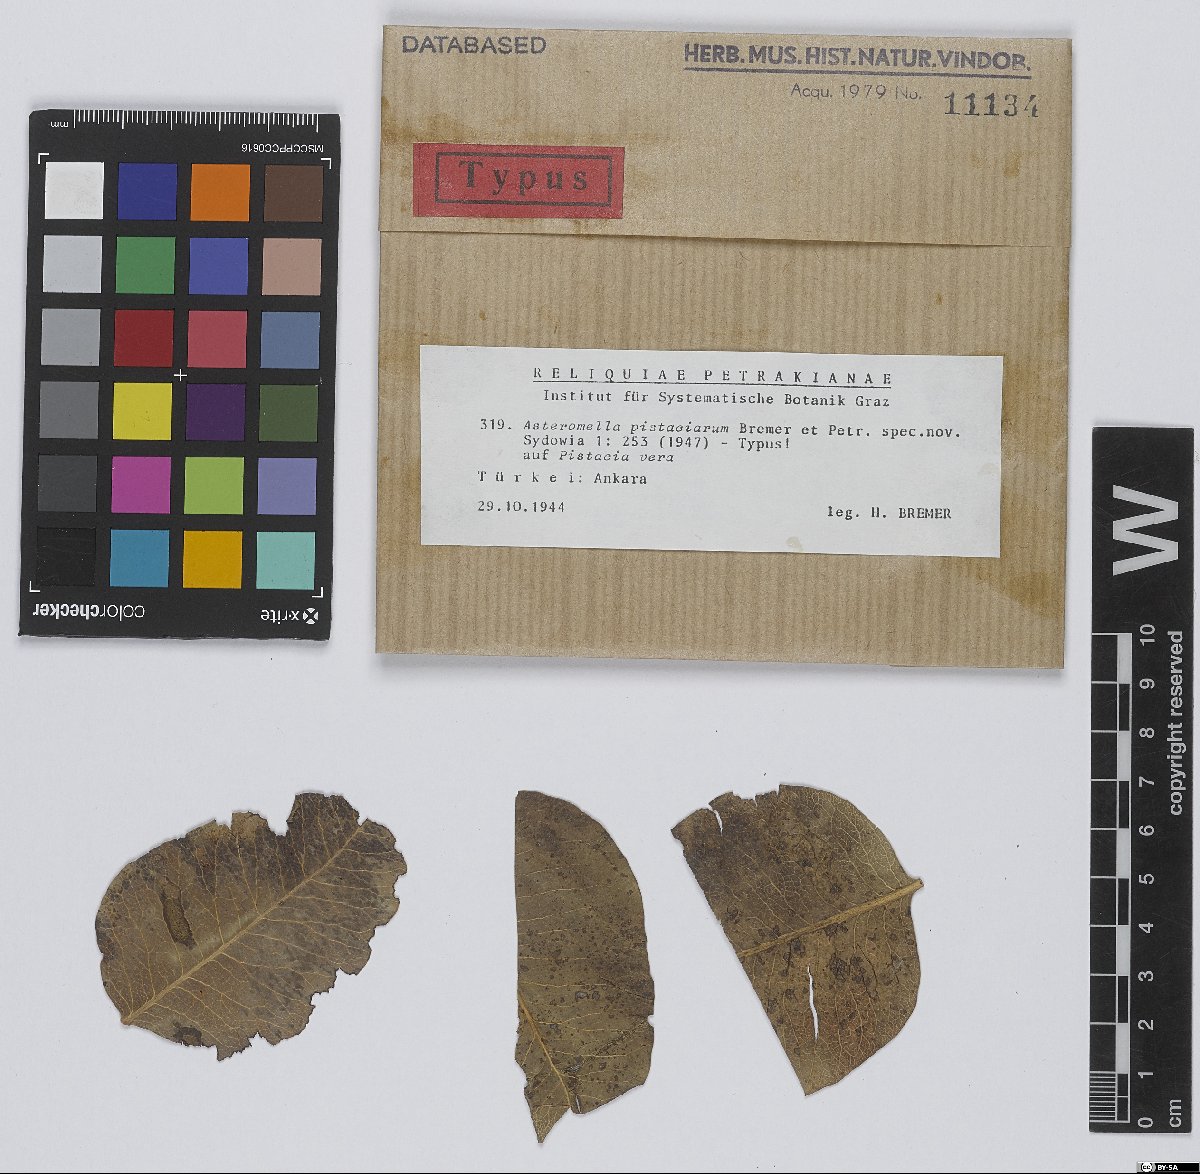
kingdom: Fungi
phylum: Ascomycota
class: Dothideomycetes
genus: Asteromella
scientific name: Asteromella pistaciarum
